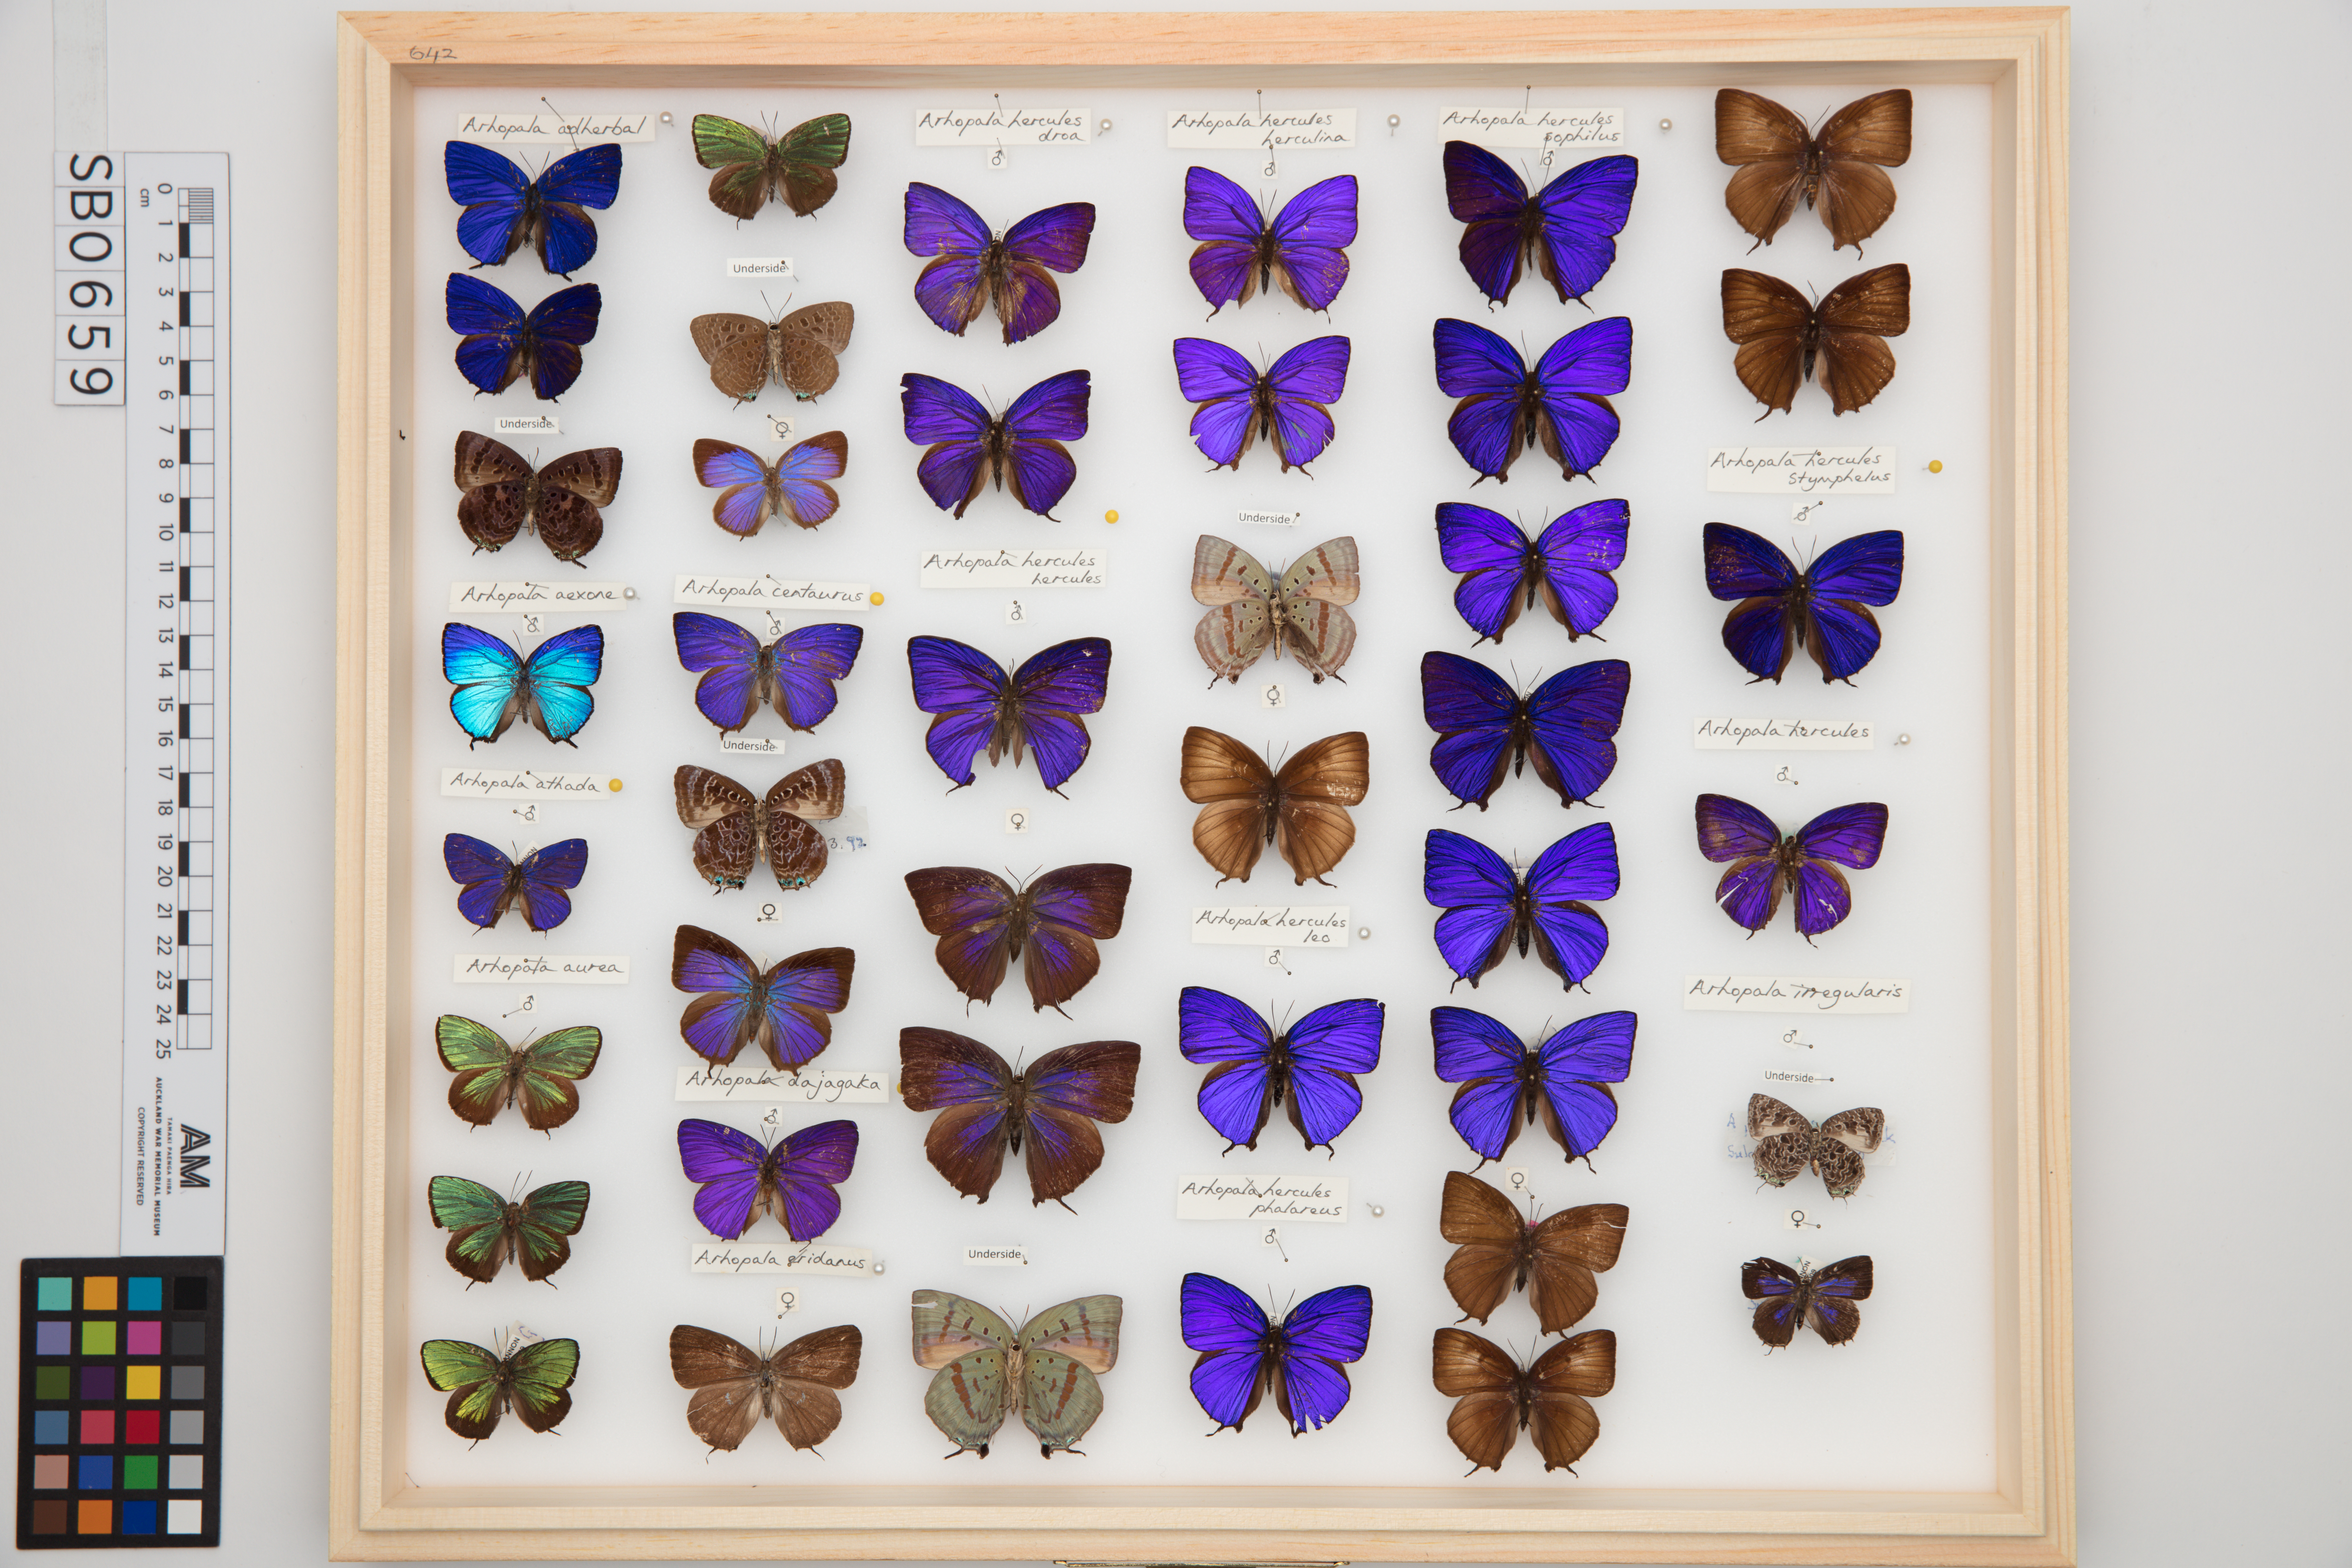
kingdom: Animalia
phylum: Arthropoda
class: Insecta
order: Lepidoptera
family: Lycaenidae
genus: Arhopala
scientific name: Arhopala centaurus
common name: Dull oak-blue
